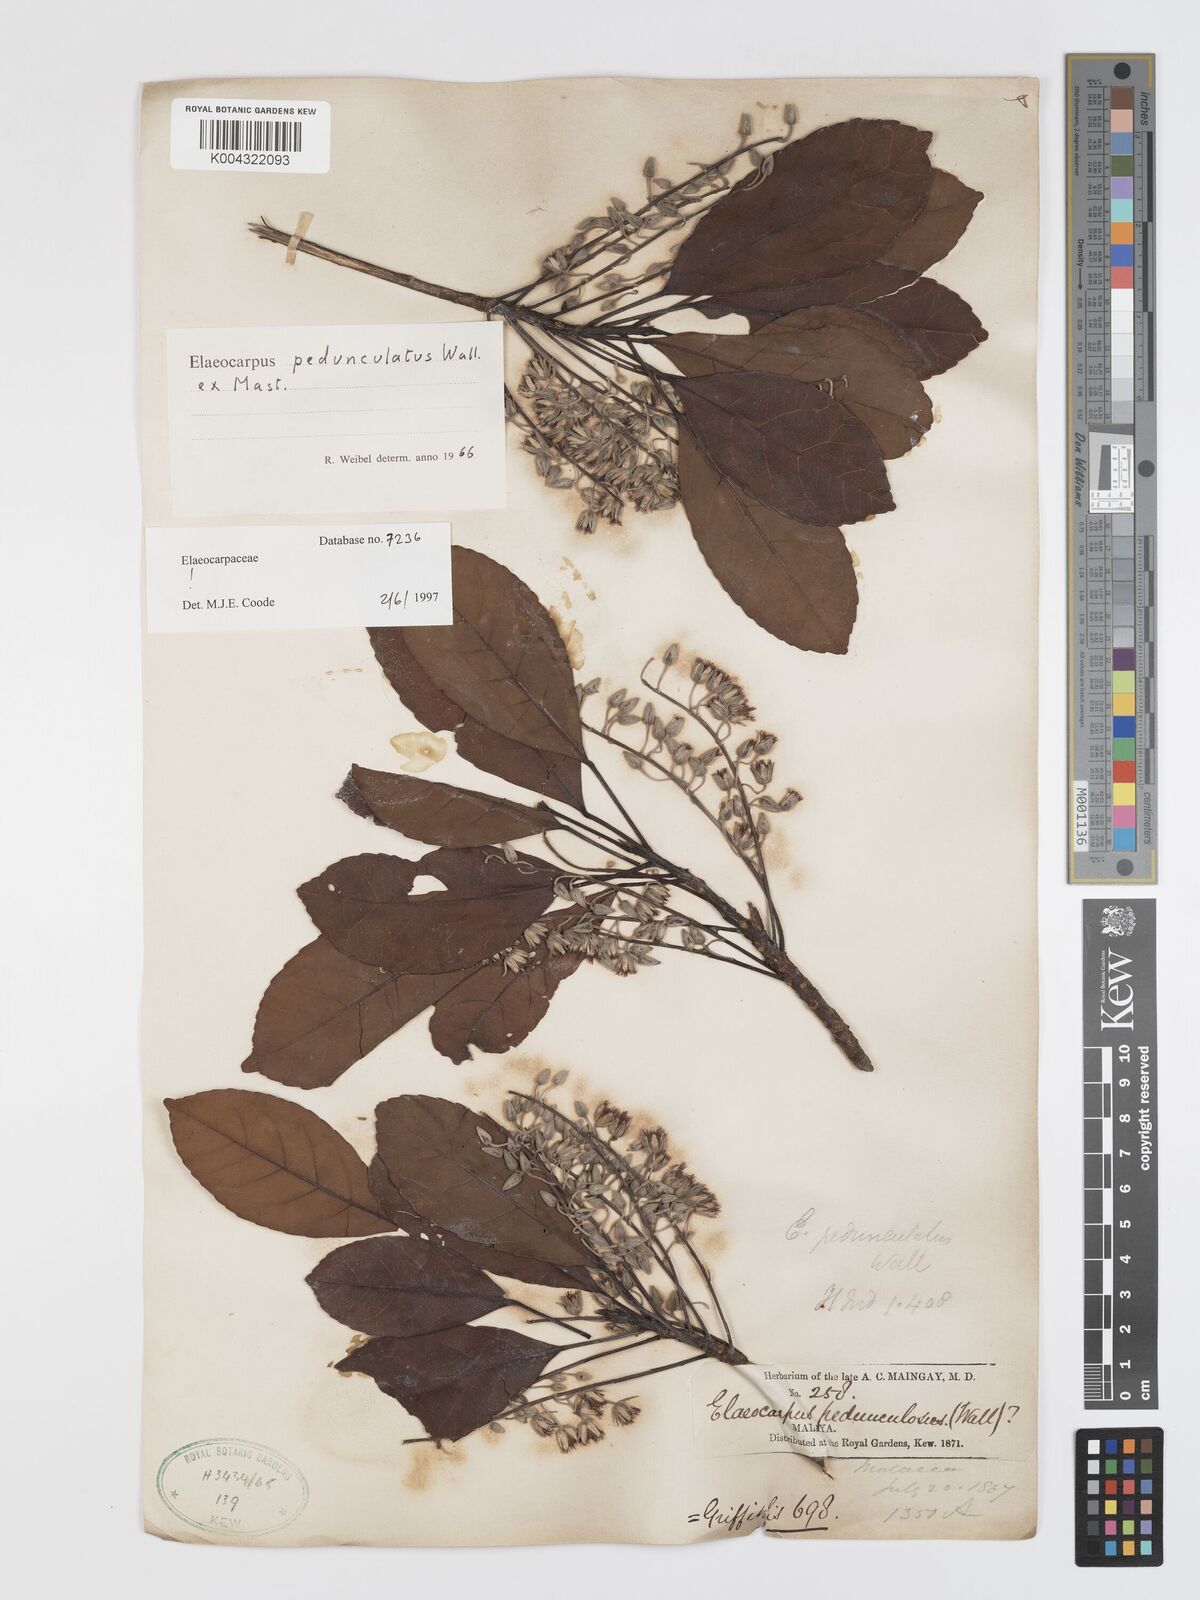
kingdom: Plantae
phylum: Tracheophyta
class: Magnoliopsida
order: Oxalidales
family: Elaeocarpaceae
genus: Elaeocarpus
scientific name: Elaeocarpus pedunculatus
